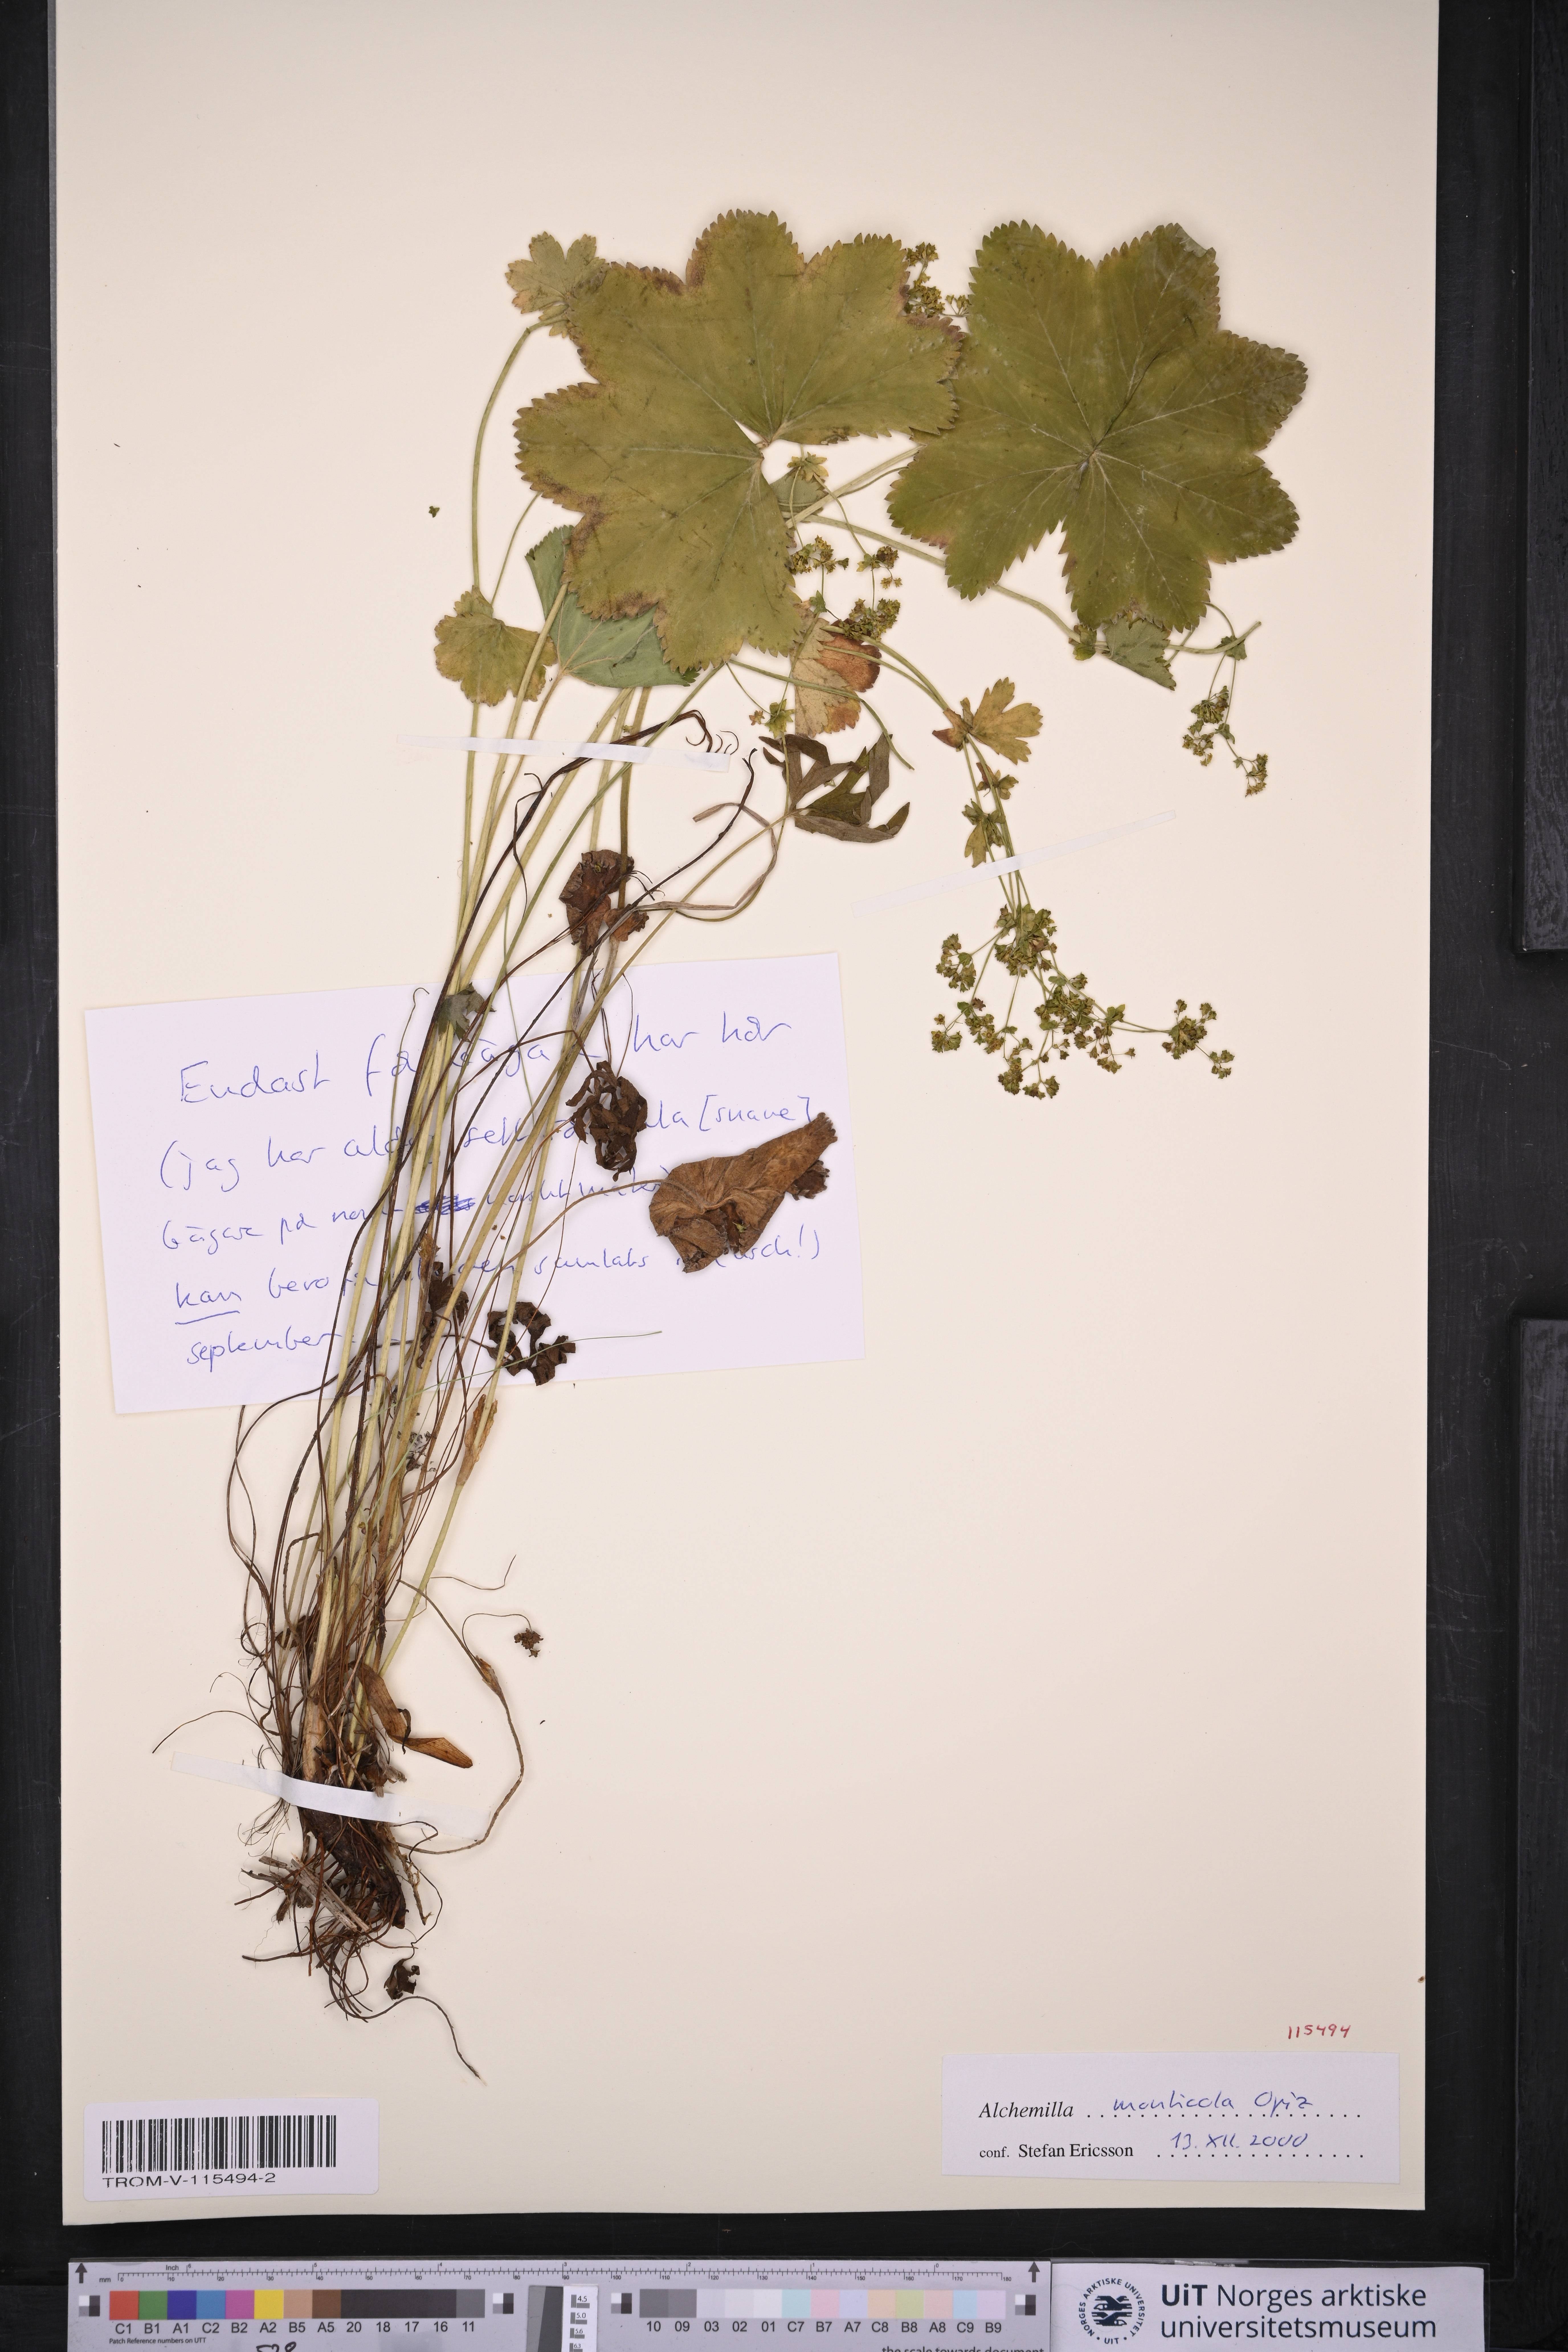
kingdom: Plantae
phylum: Tracheophyta
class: Magnoliopsida
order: Rosales
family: Rosaceae
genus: Alchemilla
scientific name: Alchemilla monticola
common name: Hairy lady's mantle
